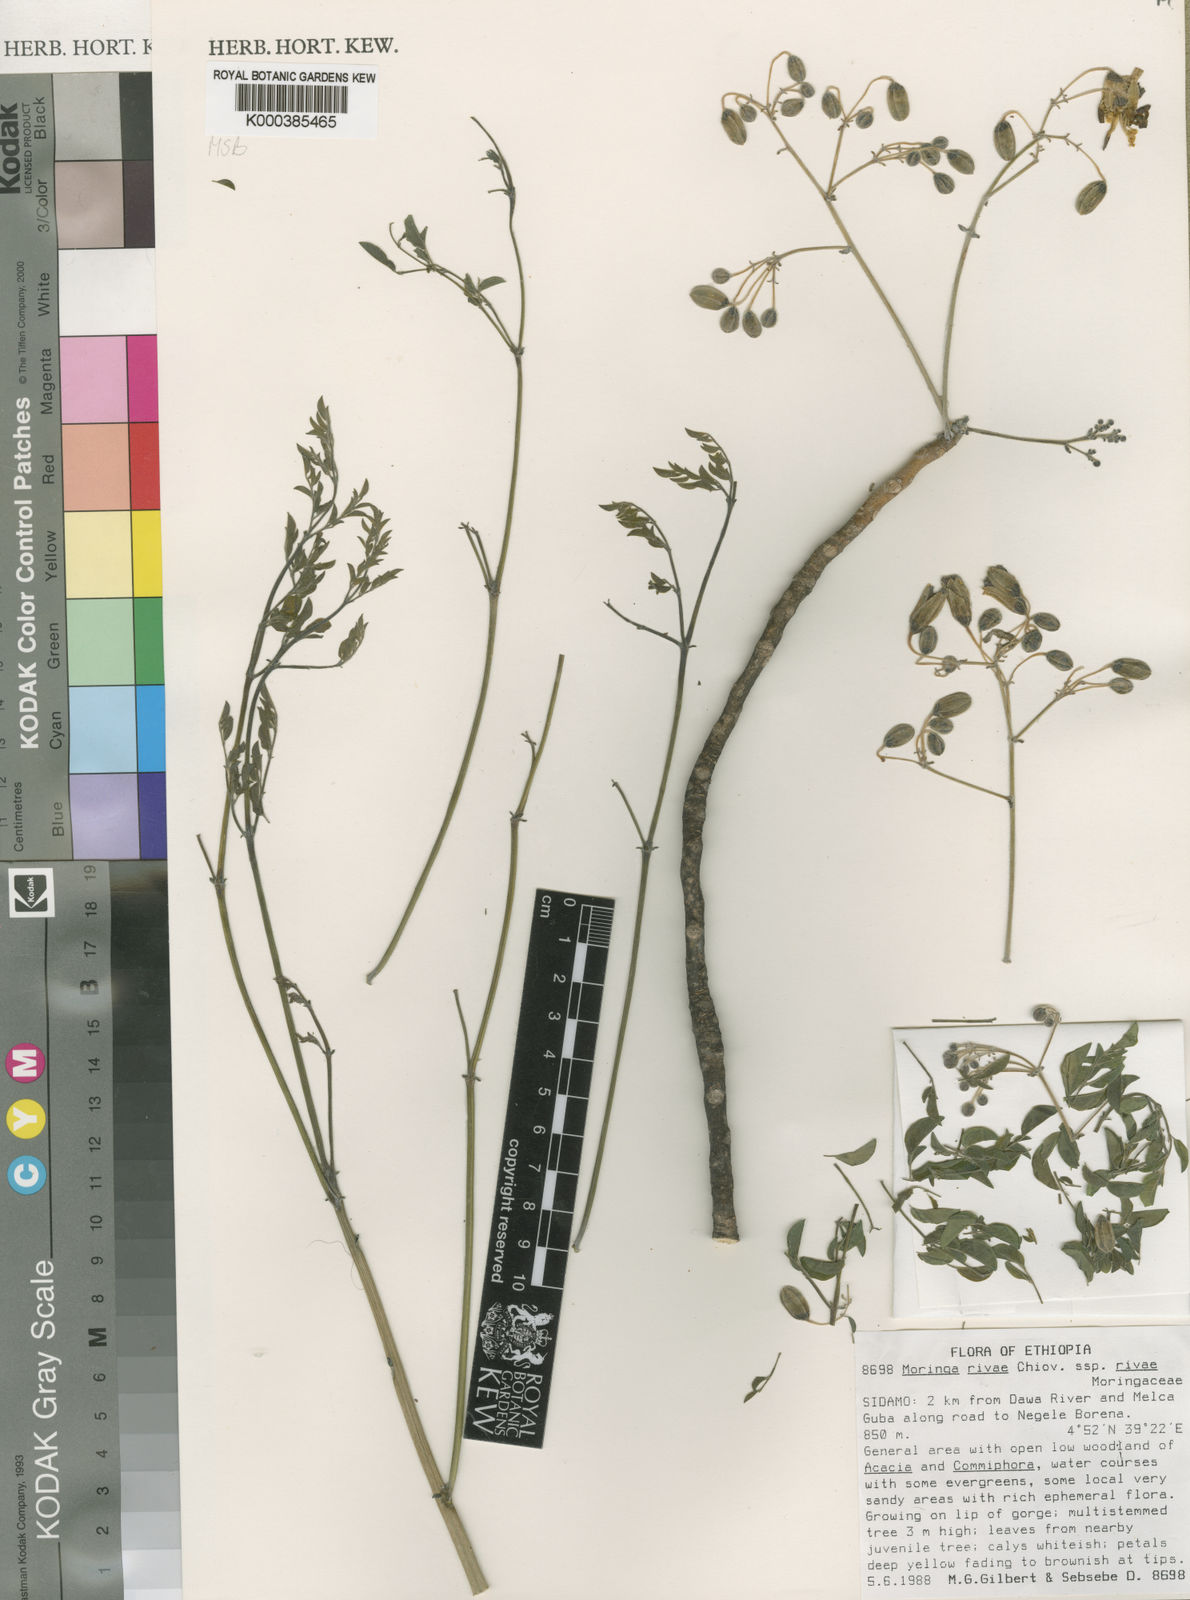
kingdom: Plantae
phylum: Tracheophyta
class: Magnoliopsida
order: Brassicales
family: Moringaceae
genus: Moringa
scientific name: Moringa rivae
